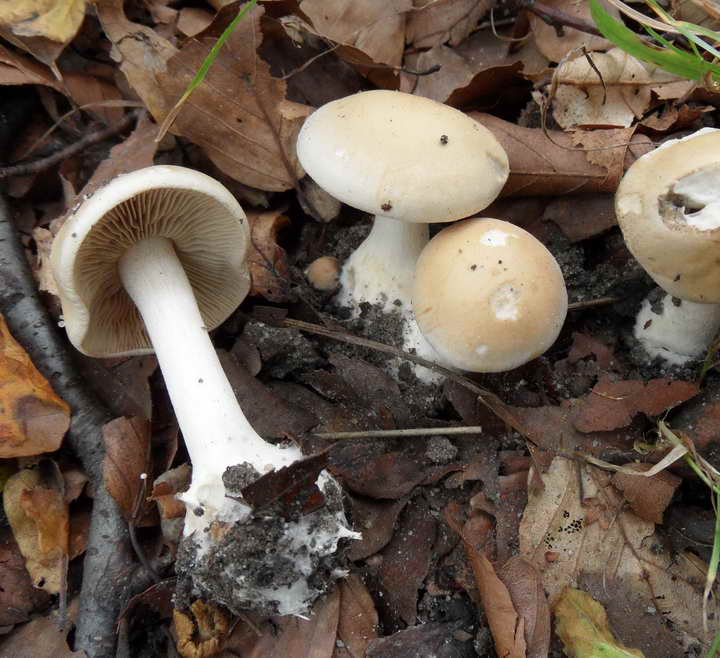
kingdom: Fungi
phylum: Basidiomycota
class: Agaricomycetes
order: Agaricales
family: Hymenogastraceae
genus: Hebeloma
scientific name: Hebeloma leucosarx
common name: højstokket tåreblad
